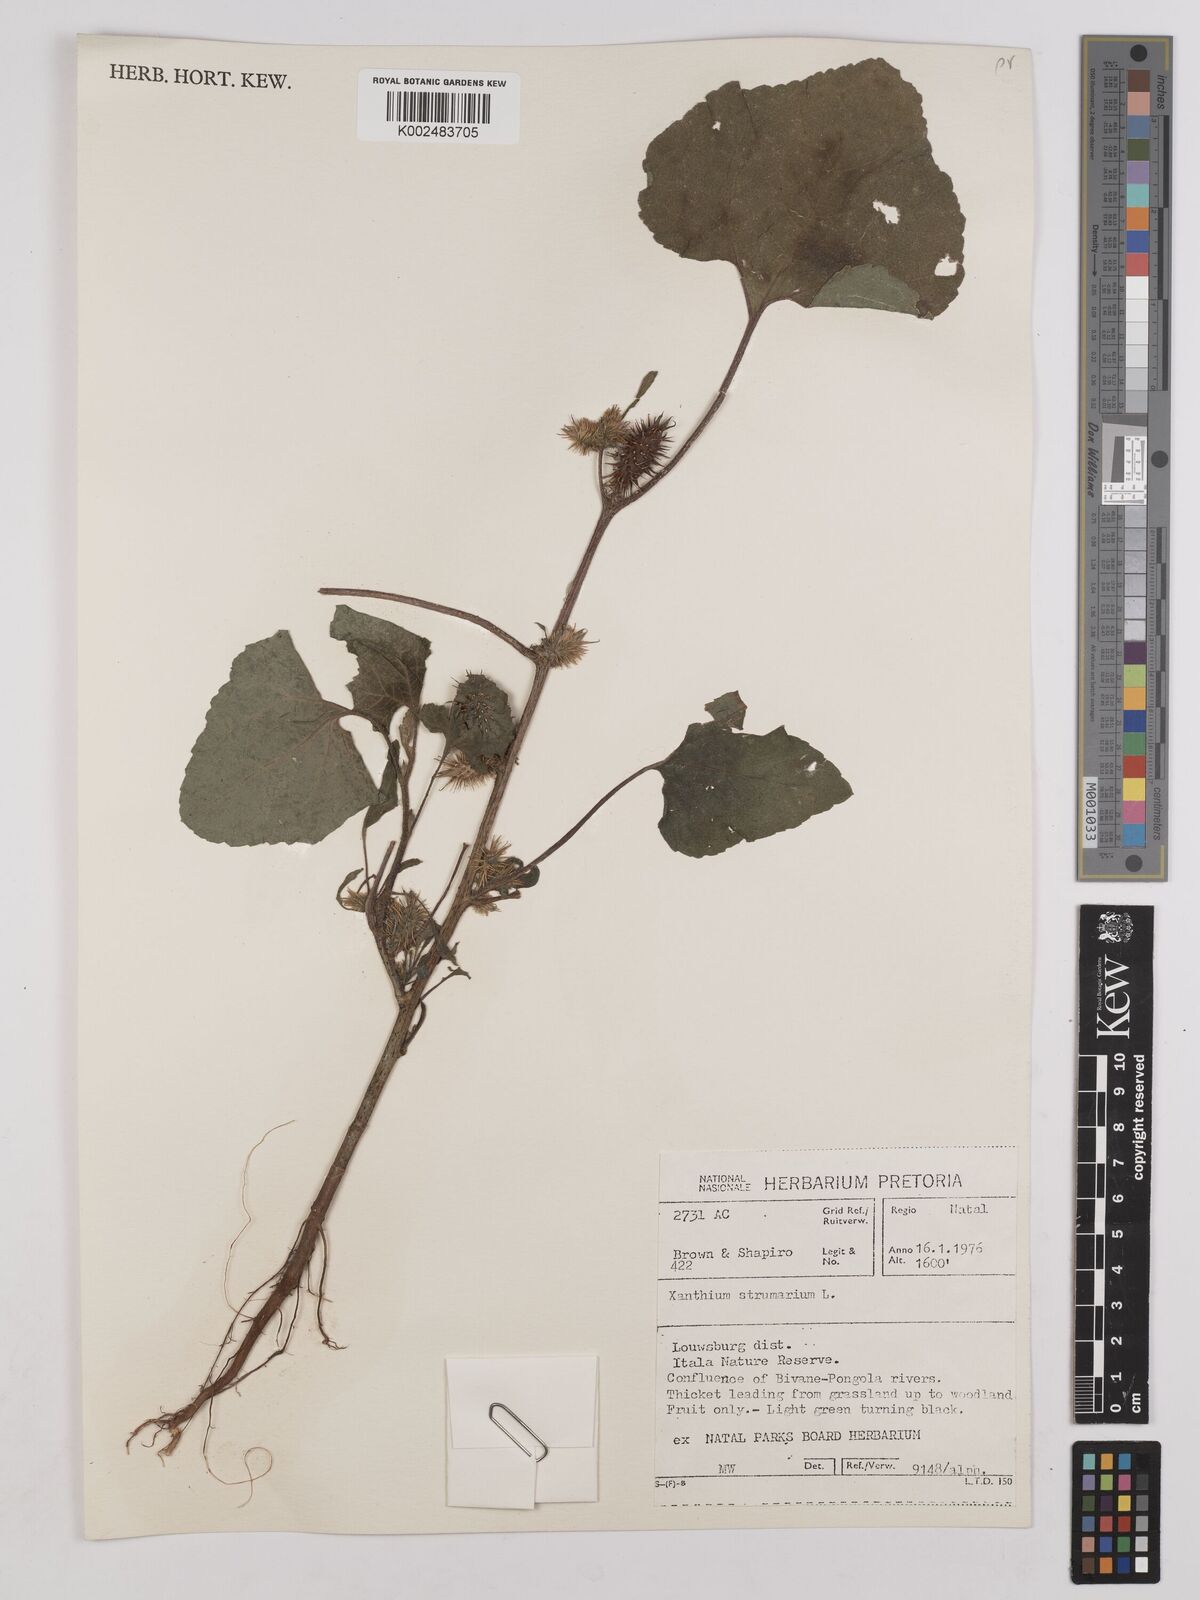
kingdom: Plantae
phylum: Tracheophyta
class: Magnoliopsida
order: Asterales
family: Asteraceae
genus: Xanthium
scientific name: Xanthium strumarium
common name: Rough cocklebur
